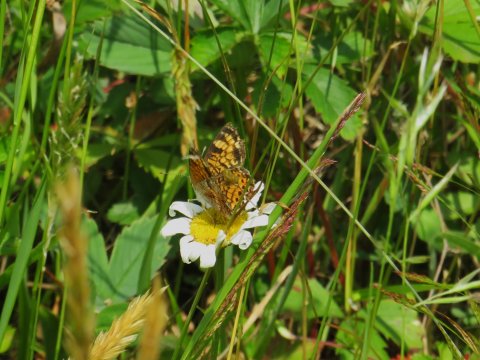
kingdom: Animalia
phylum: Arthropoda
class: Insecta
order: Lepidoptera
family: Nymphalidae
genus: Phyciodes
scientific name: Phyciodes tharos
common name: Pearl Crescent
